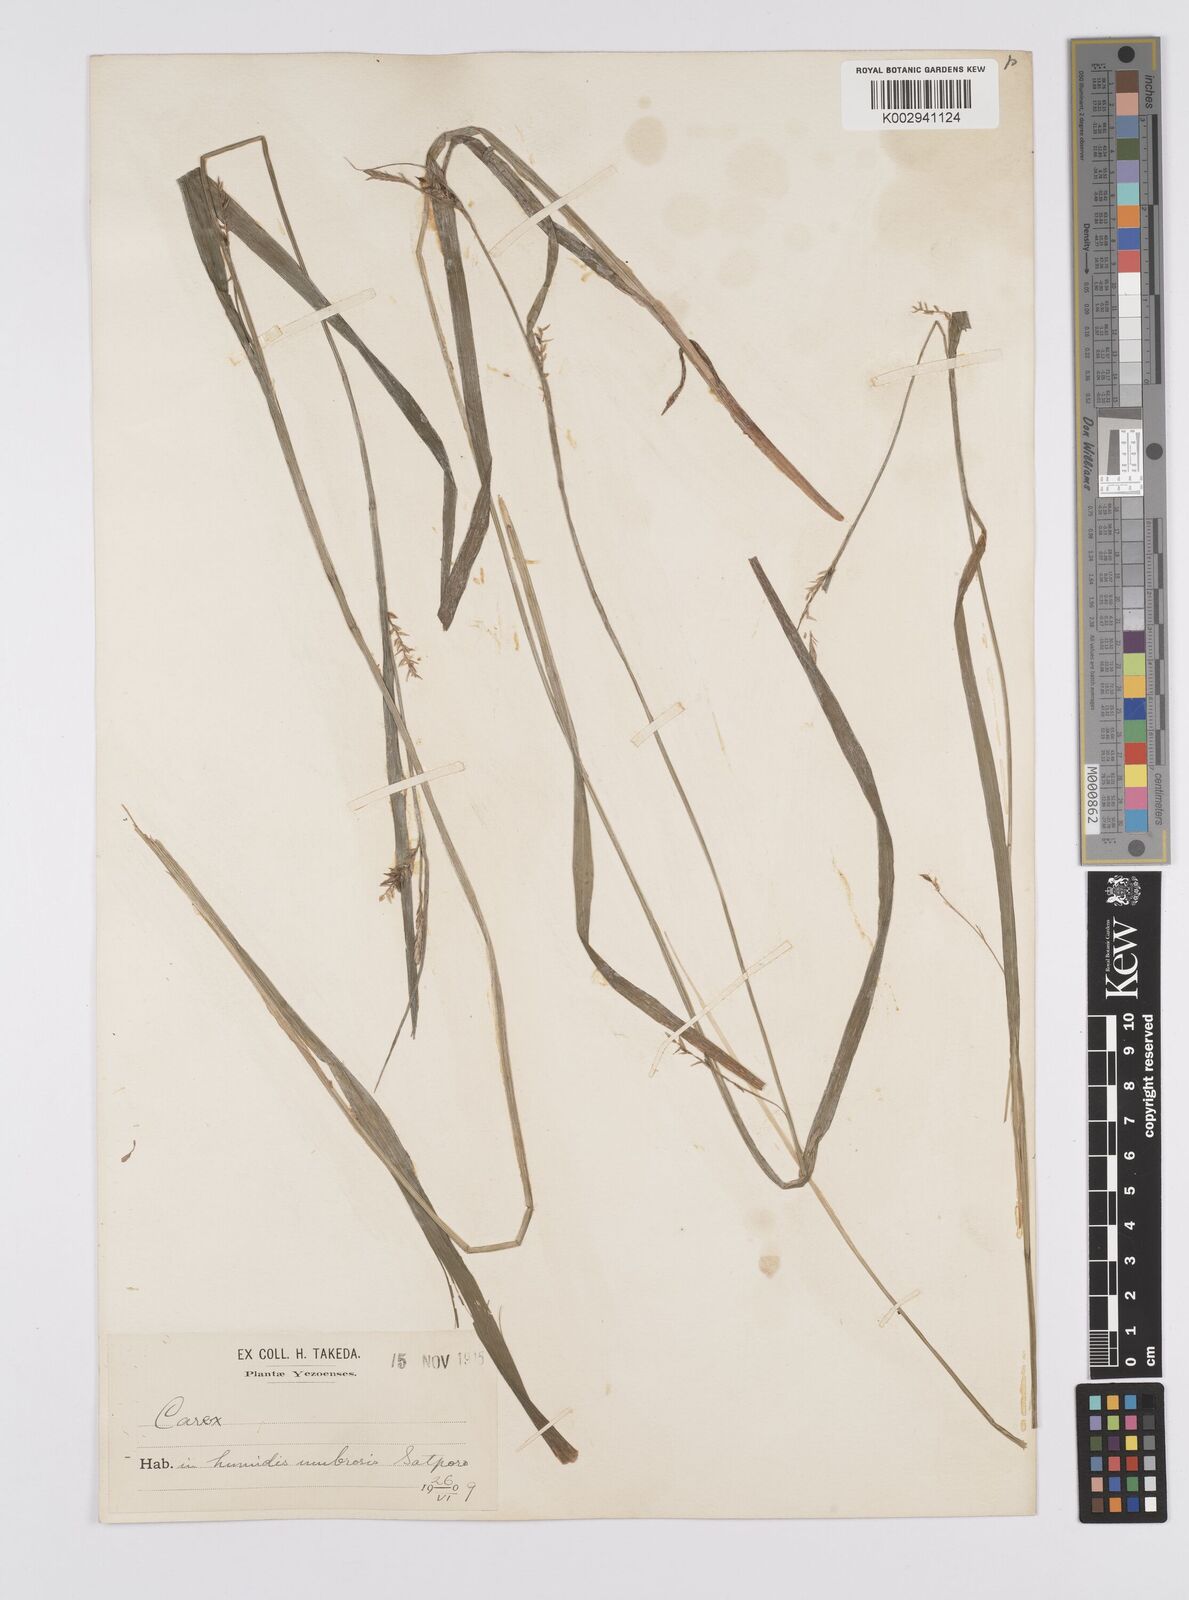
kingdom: Plantae
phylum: Tracheophyta
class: Liliopsida
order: Poales
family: Cyperaceae
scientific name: Cyperaceae
